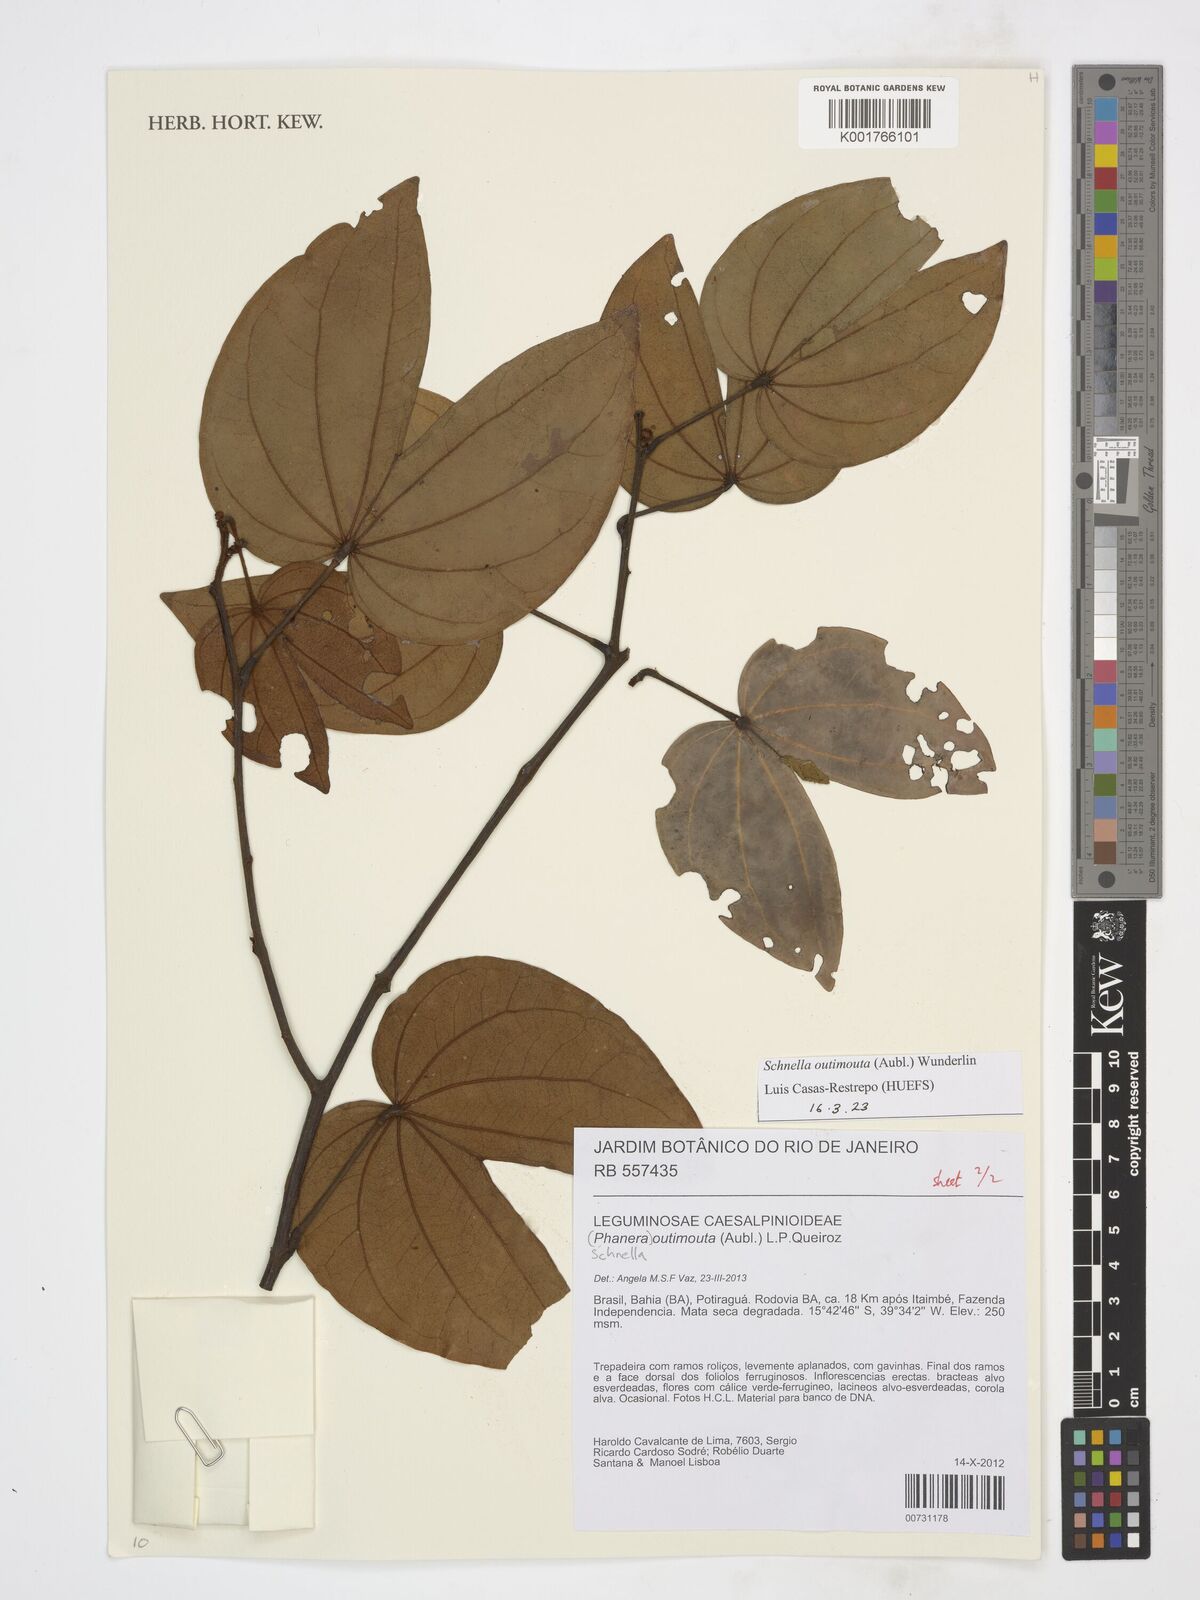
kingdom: Plantae
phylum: Tracheophyta
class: Magnoliopsida
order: Fabales
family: Fabaceae
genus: Schnella
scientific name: Schnella outimouta
